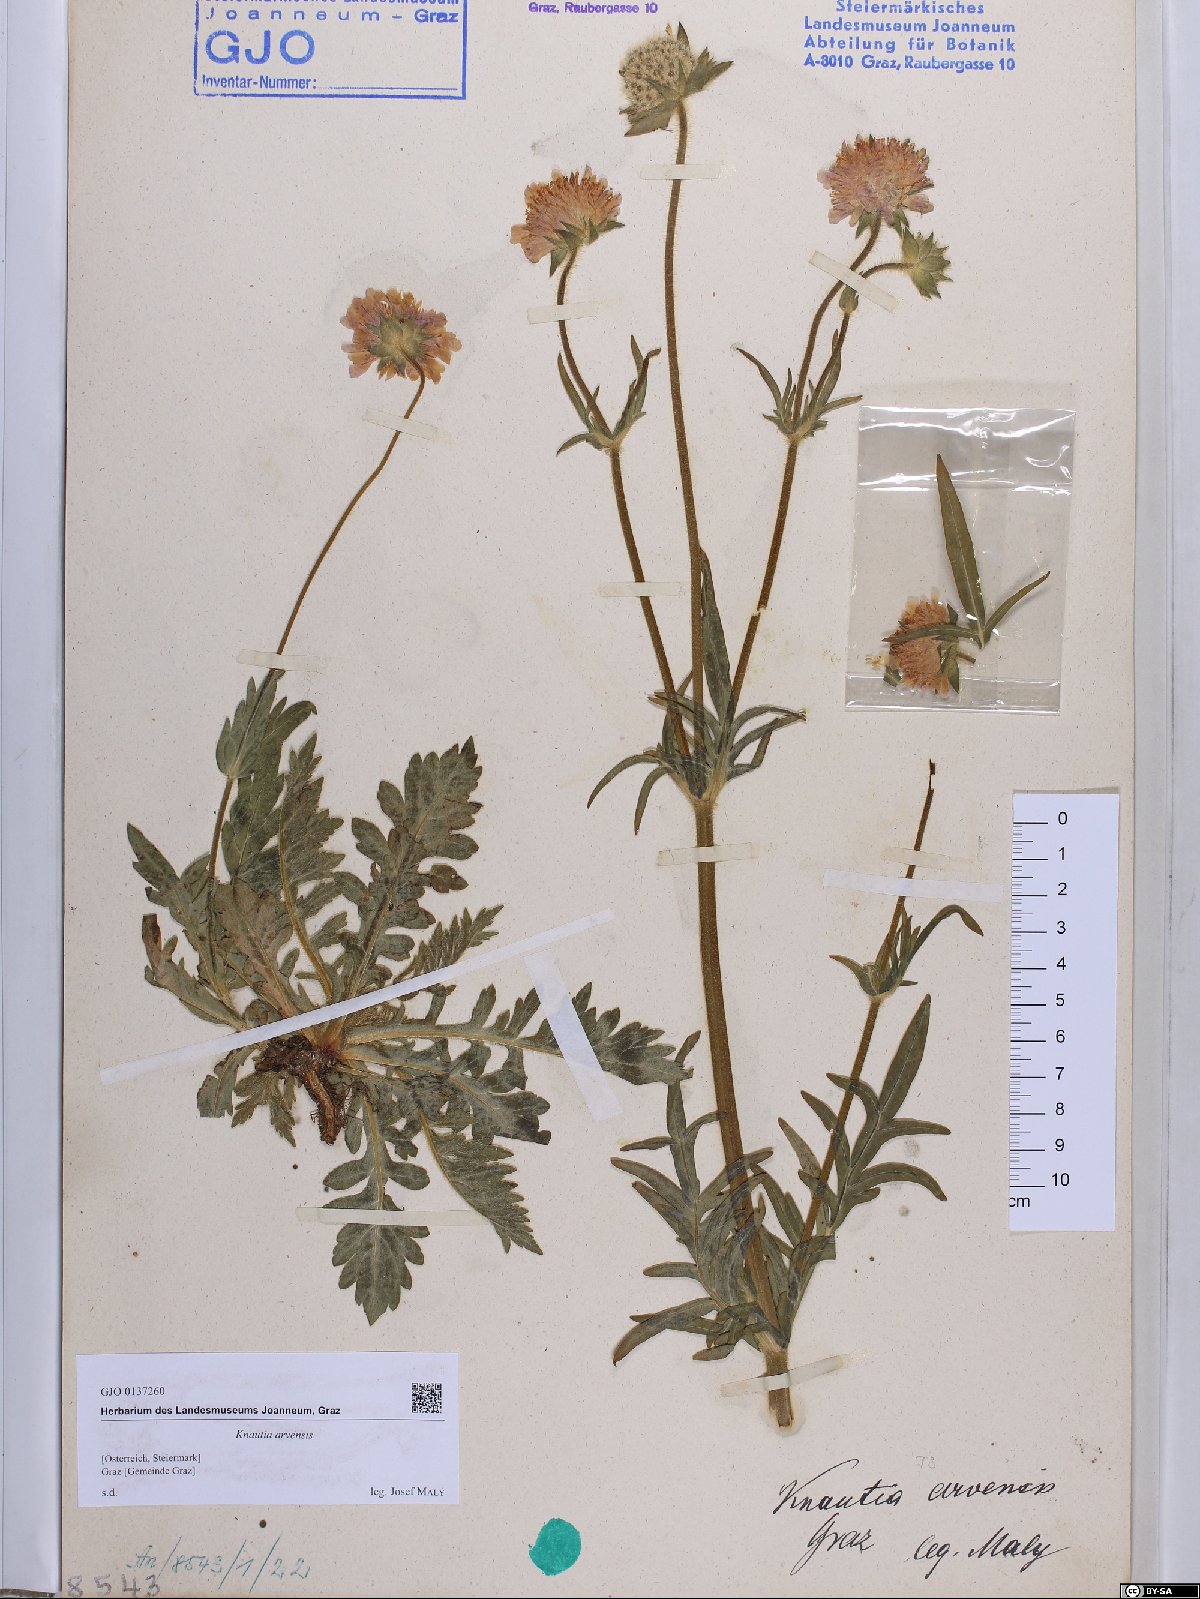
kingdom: Plantae
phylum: Tracheophyta
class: Magnoliopsida
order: Dipsacales
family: Caprifoliaceae
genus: Knautia
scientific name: Knautia arvensis
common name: Field scabiosa
